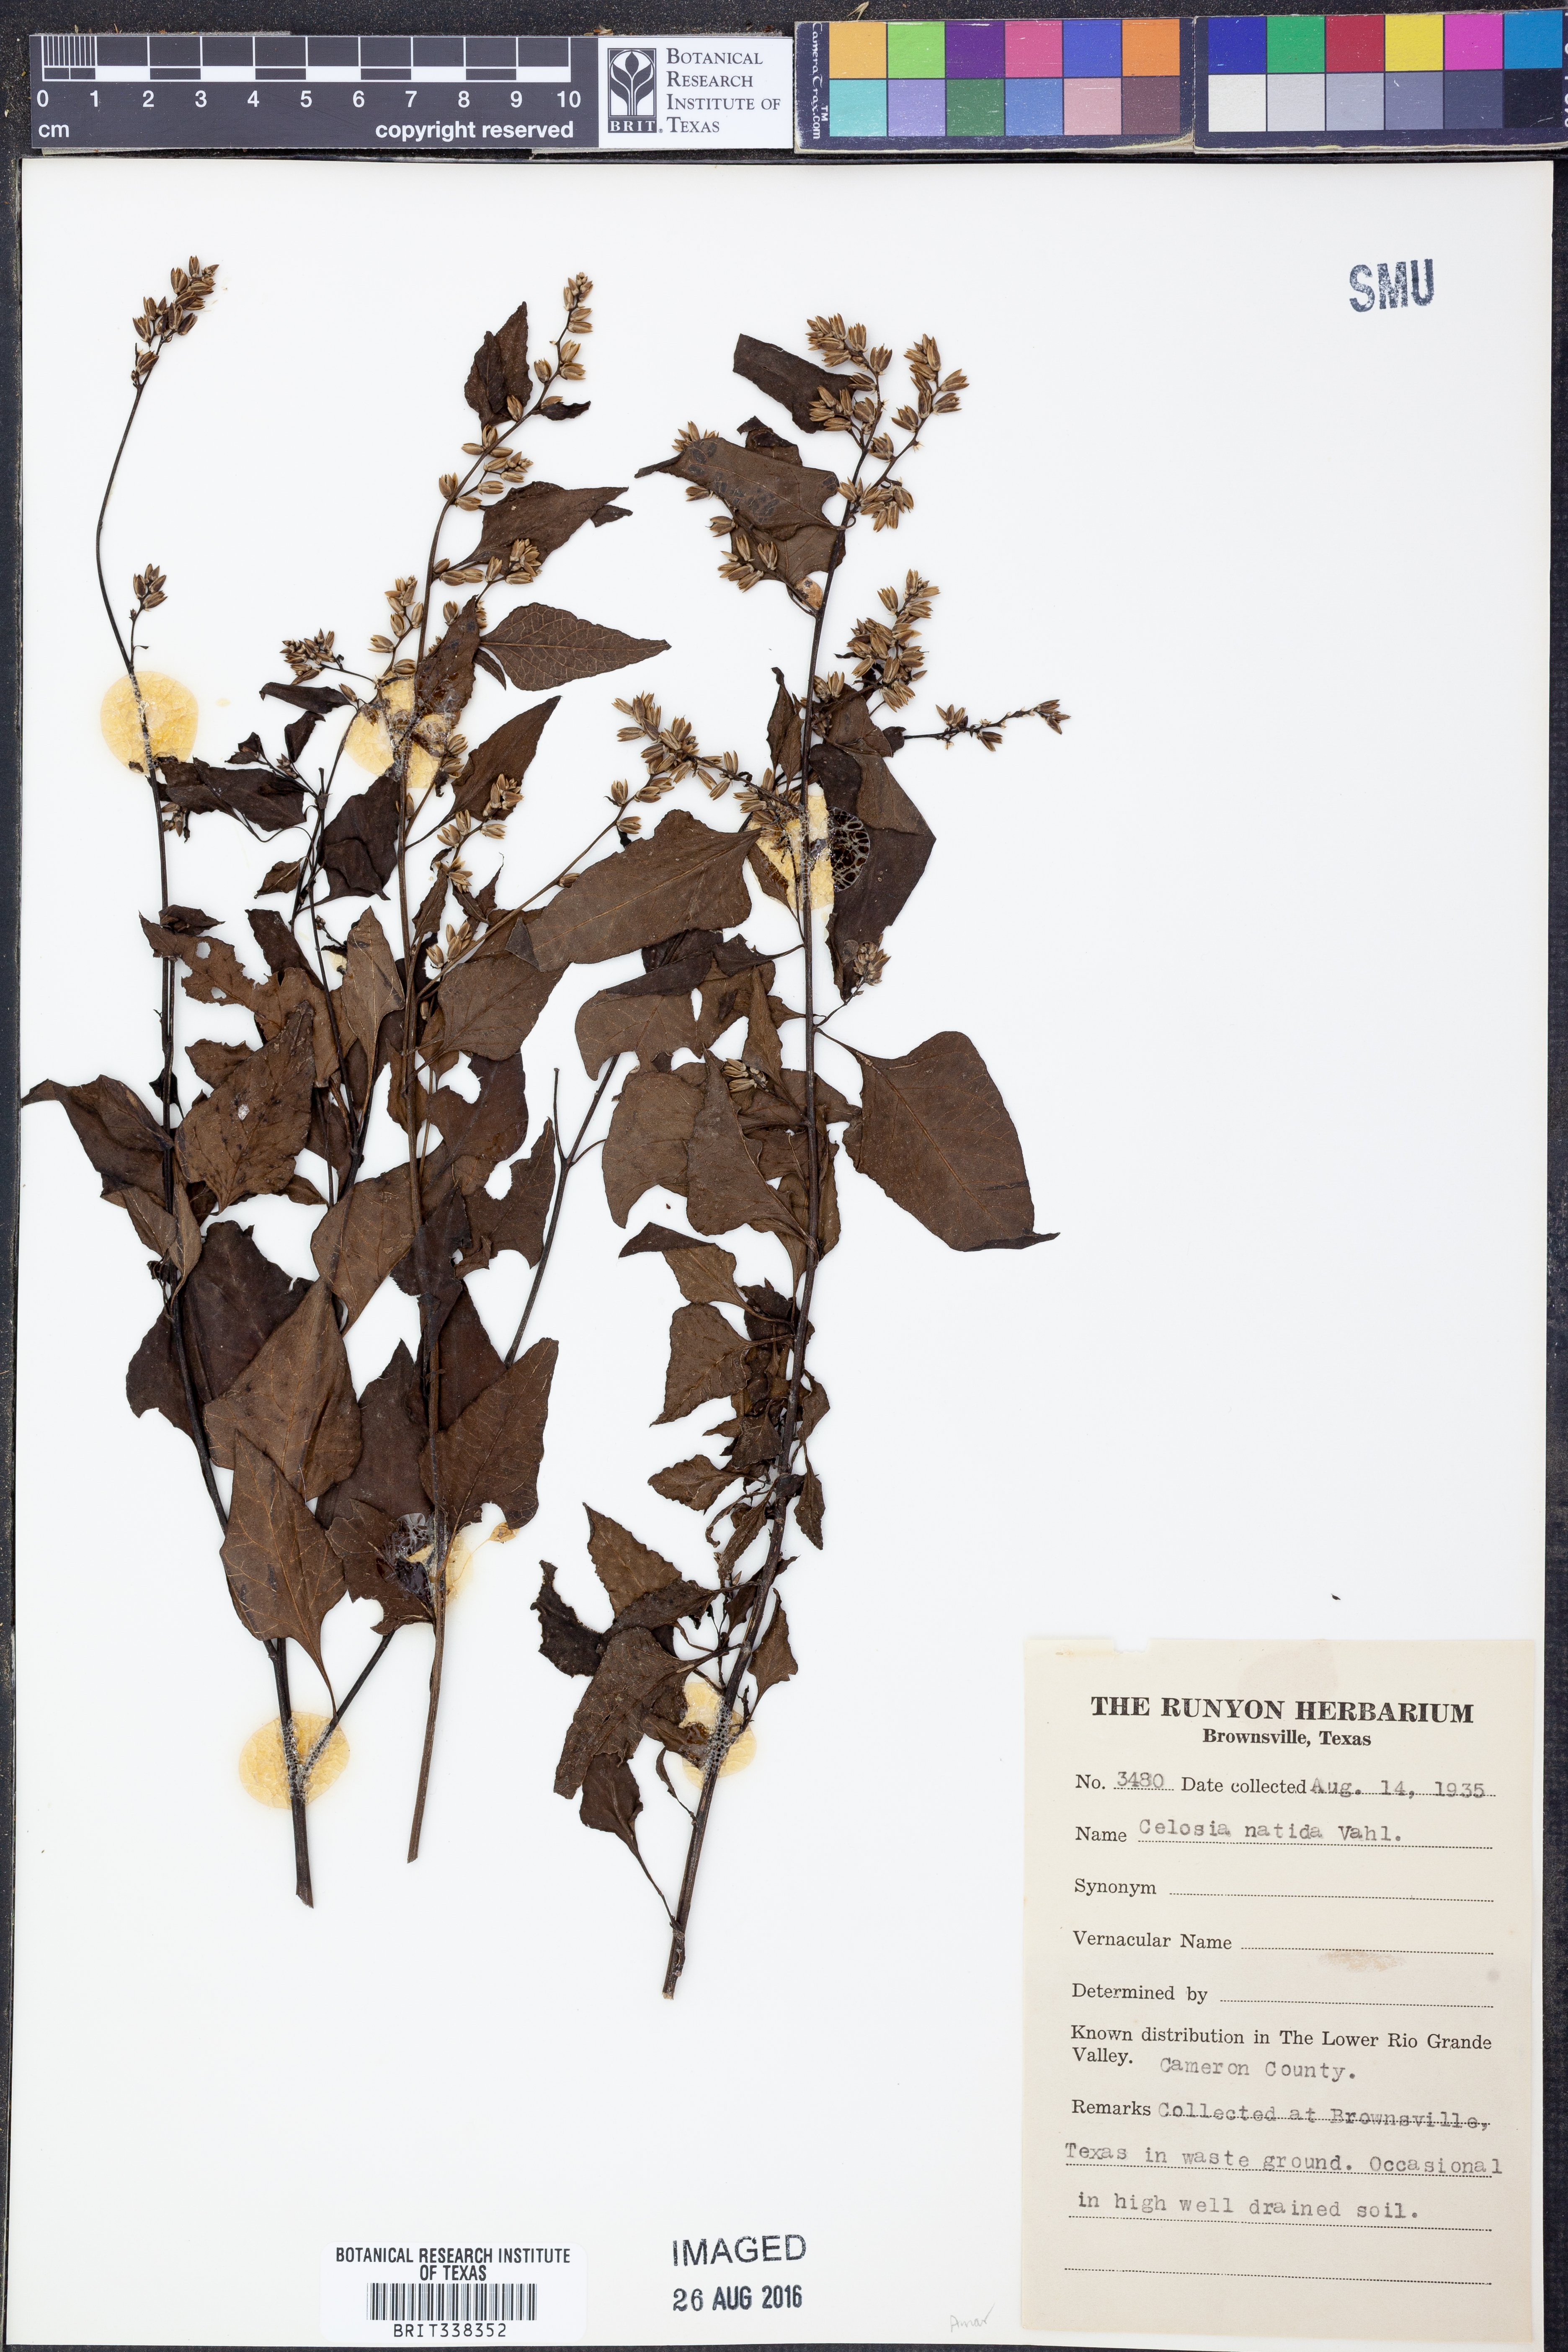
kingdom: Plantae
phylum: Tracheophyta
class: Magnoliopsida
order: Caryophyllales
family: Amaranthaceae
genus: Celosia
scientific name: Celosia nitida
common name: West indian cock's comb
